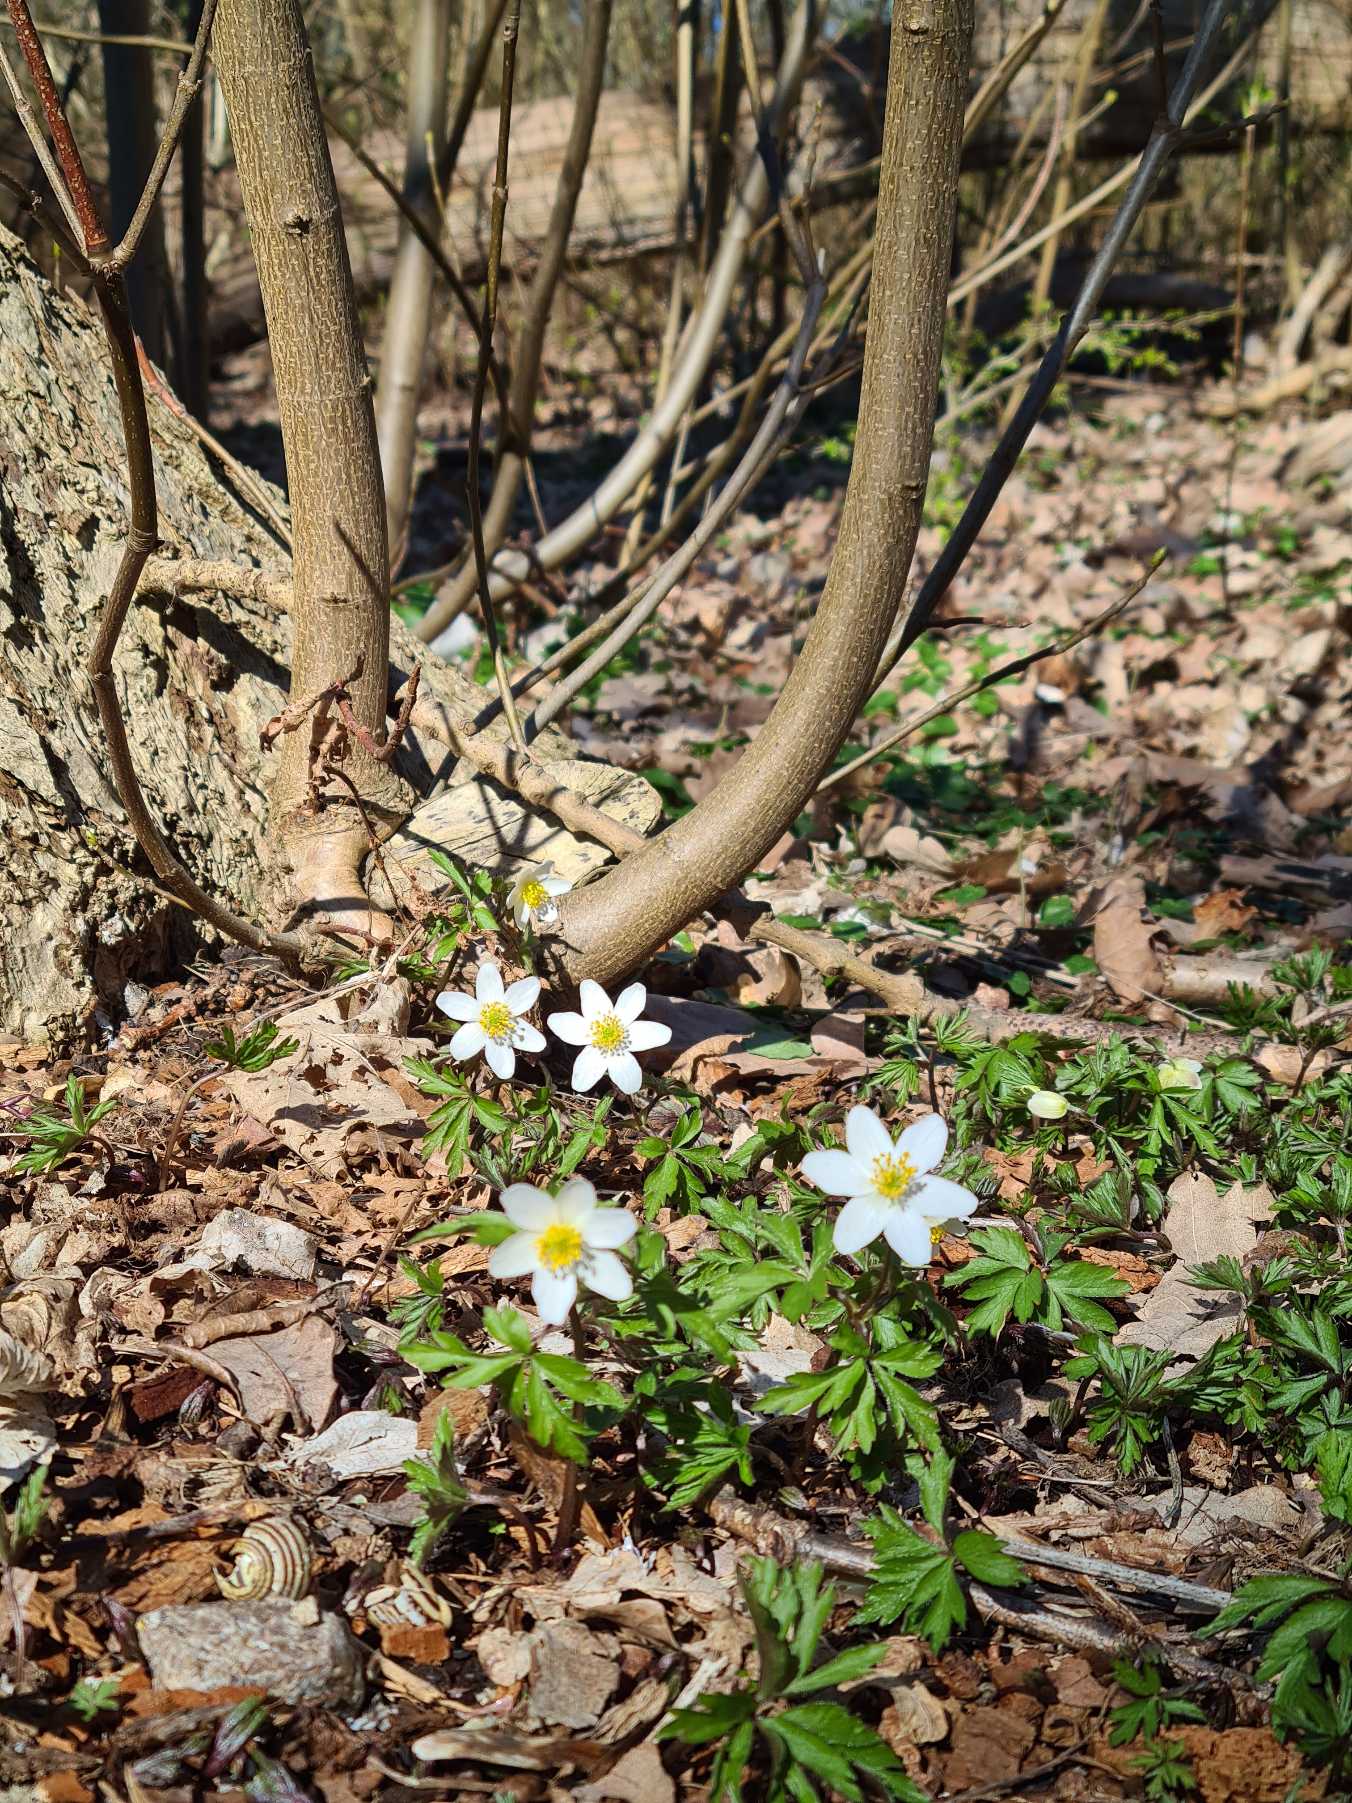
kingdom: Plantae
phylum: Tracheophyta
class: Magnoliopsida
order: Ranunculales
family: Ranunculaceae
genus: Anemone
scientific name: Anemone nemorosa
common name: Hvid anemone
